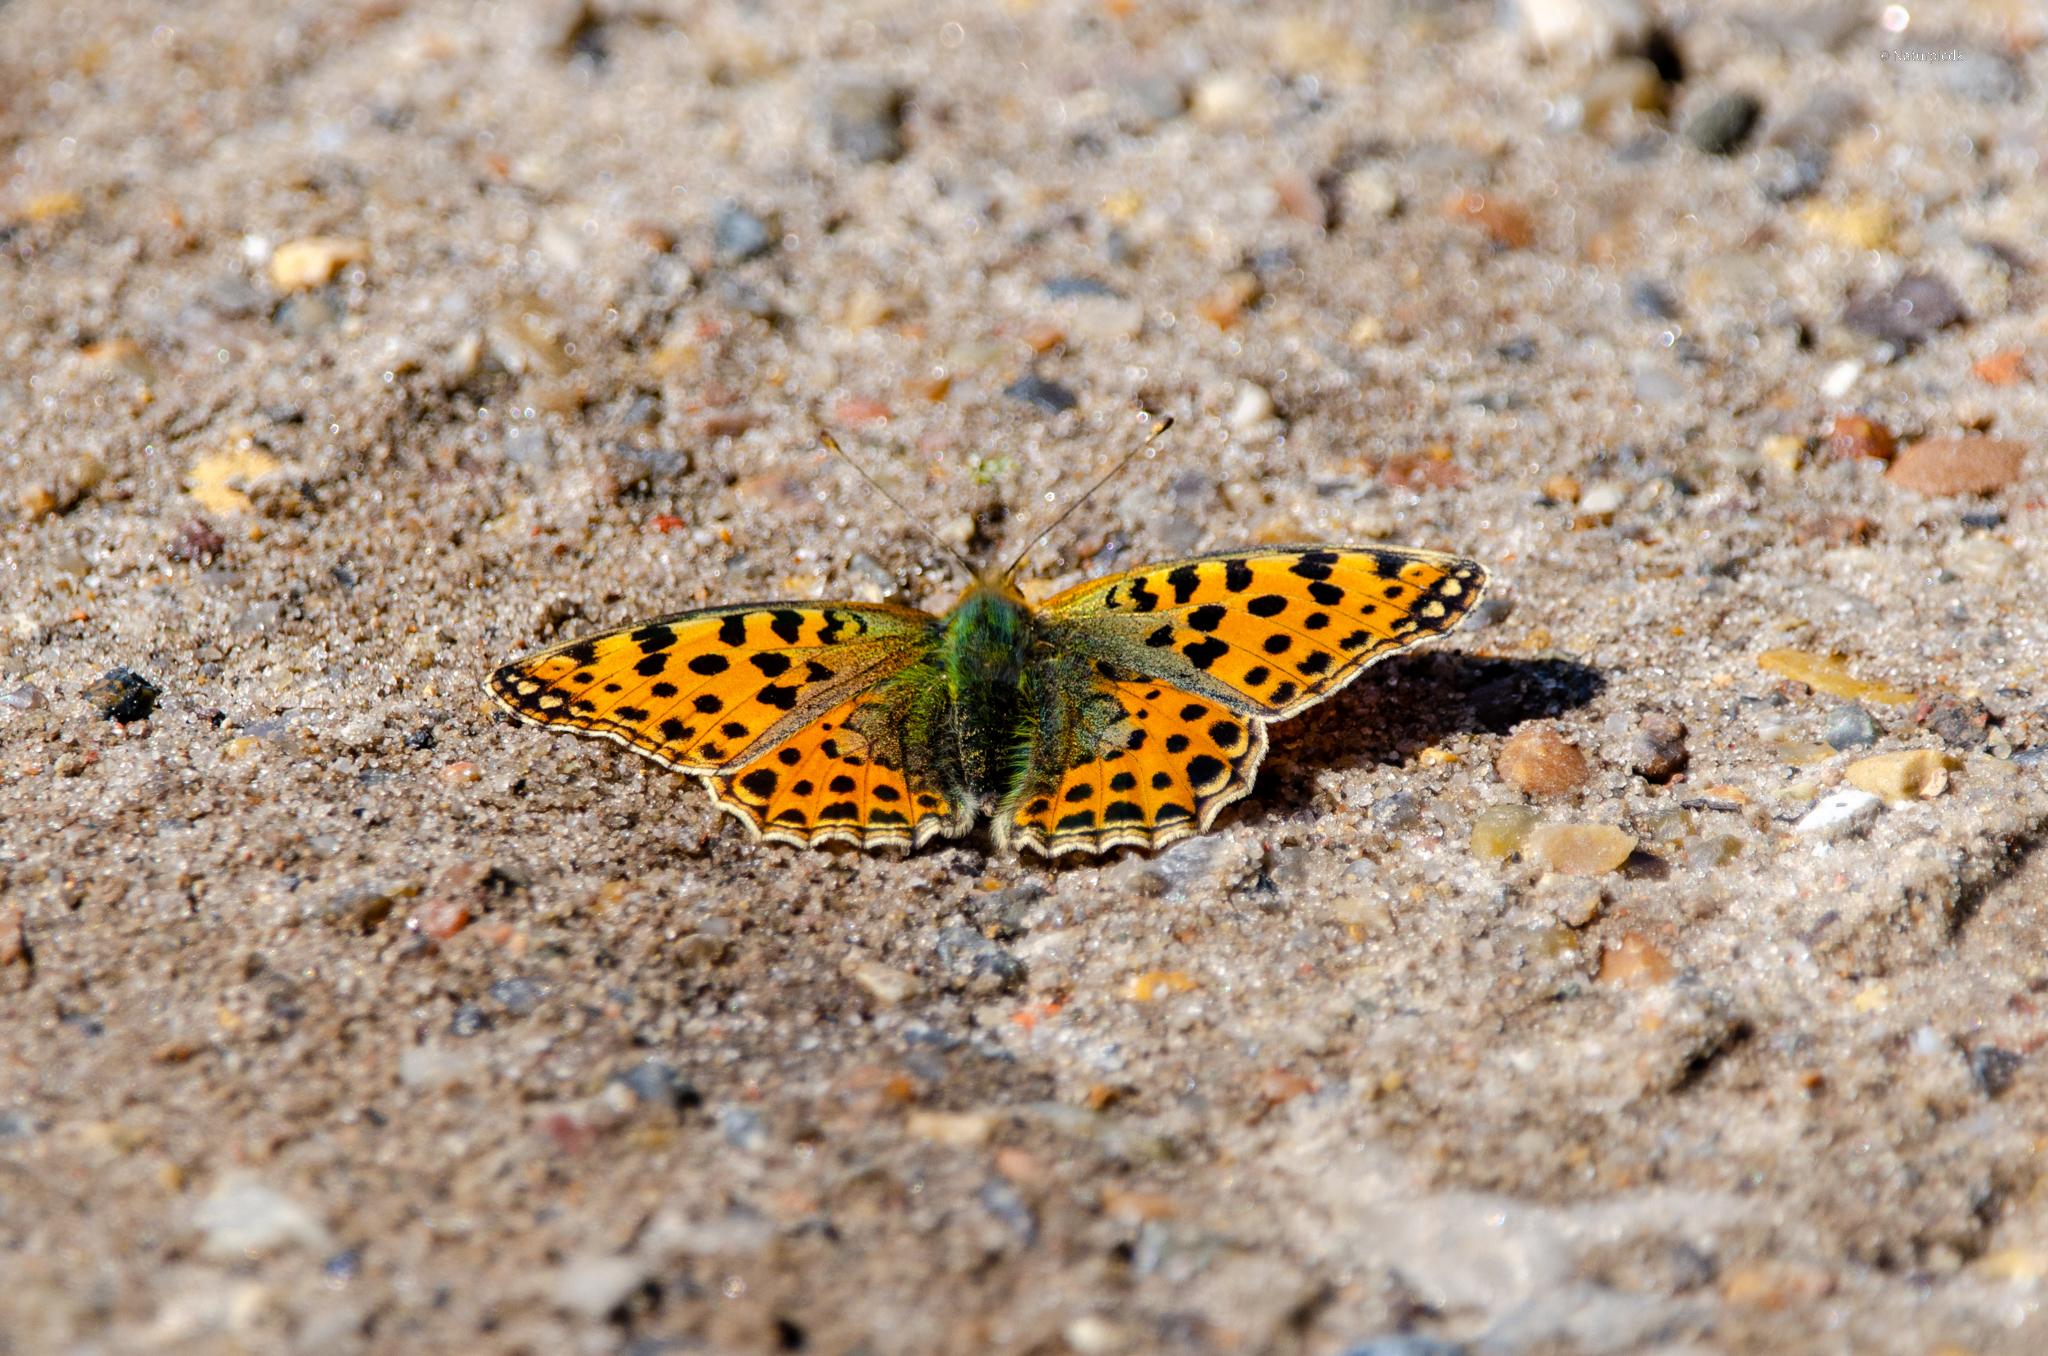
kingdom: Animalia
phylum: Arthropoda
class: Insecta
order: Lepidoptera
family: Nymphalidae
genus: Issoria
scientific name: Issoria lathonia
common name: Storplettet perlemorsommerfugl
